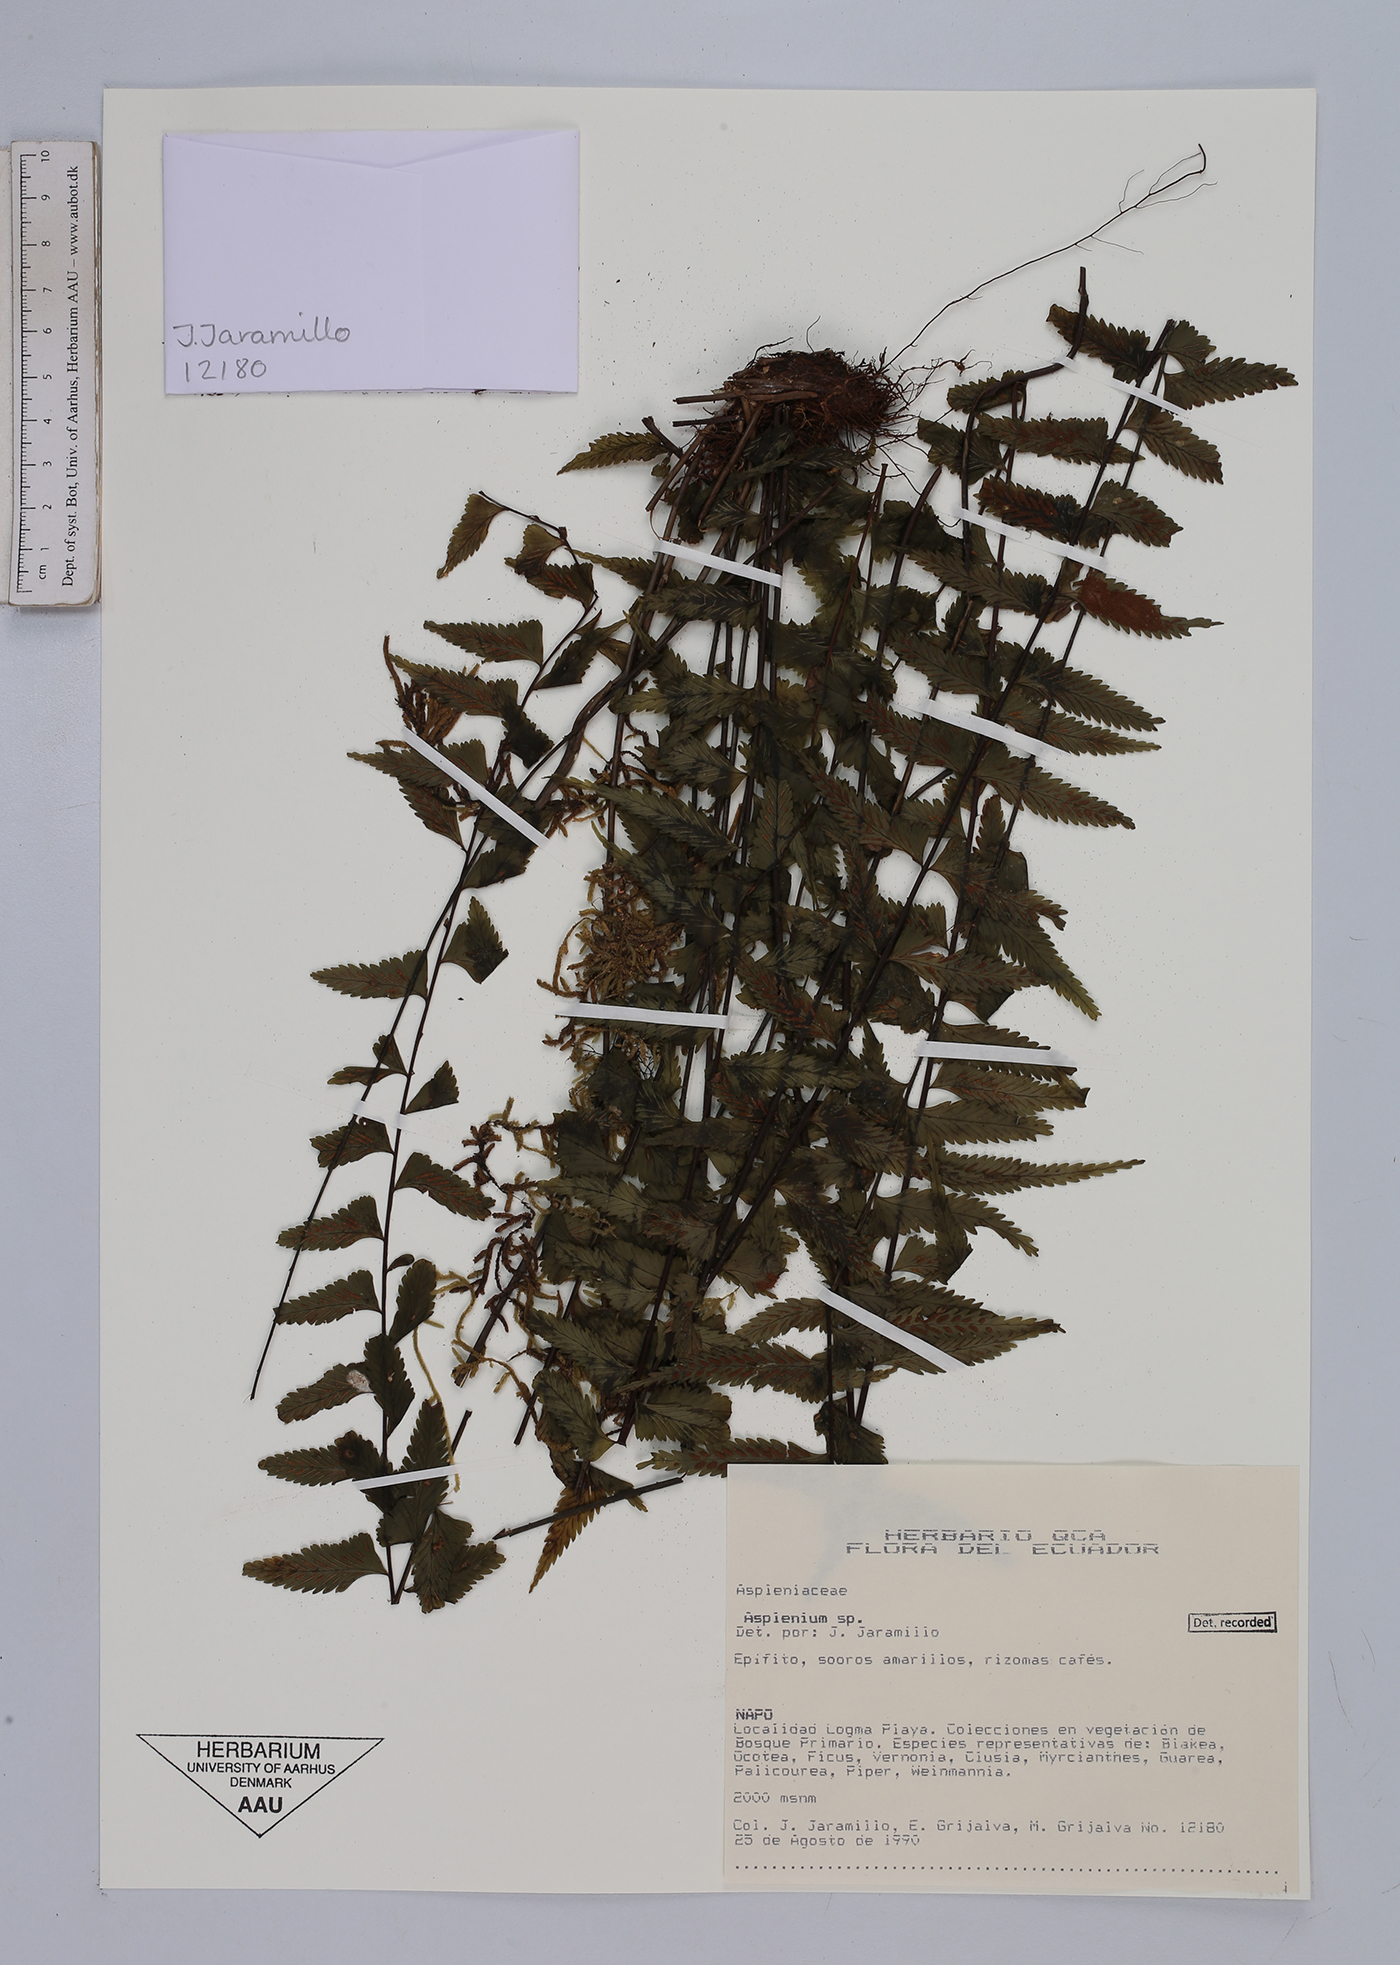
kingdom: Plantae
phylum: Tracheophyta
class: Polypodiopsida
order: Polypodiales
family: Aspleniaceae
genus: Asplenium
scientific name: Asplenium
